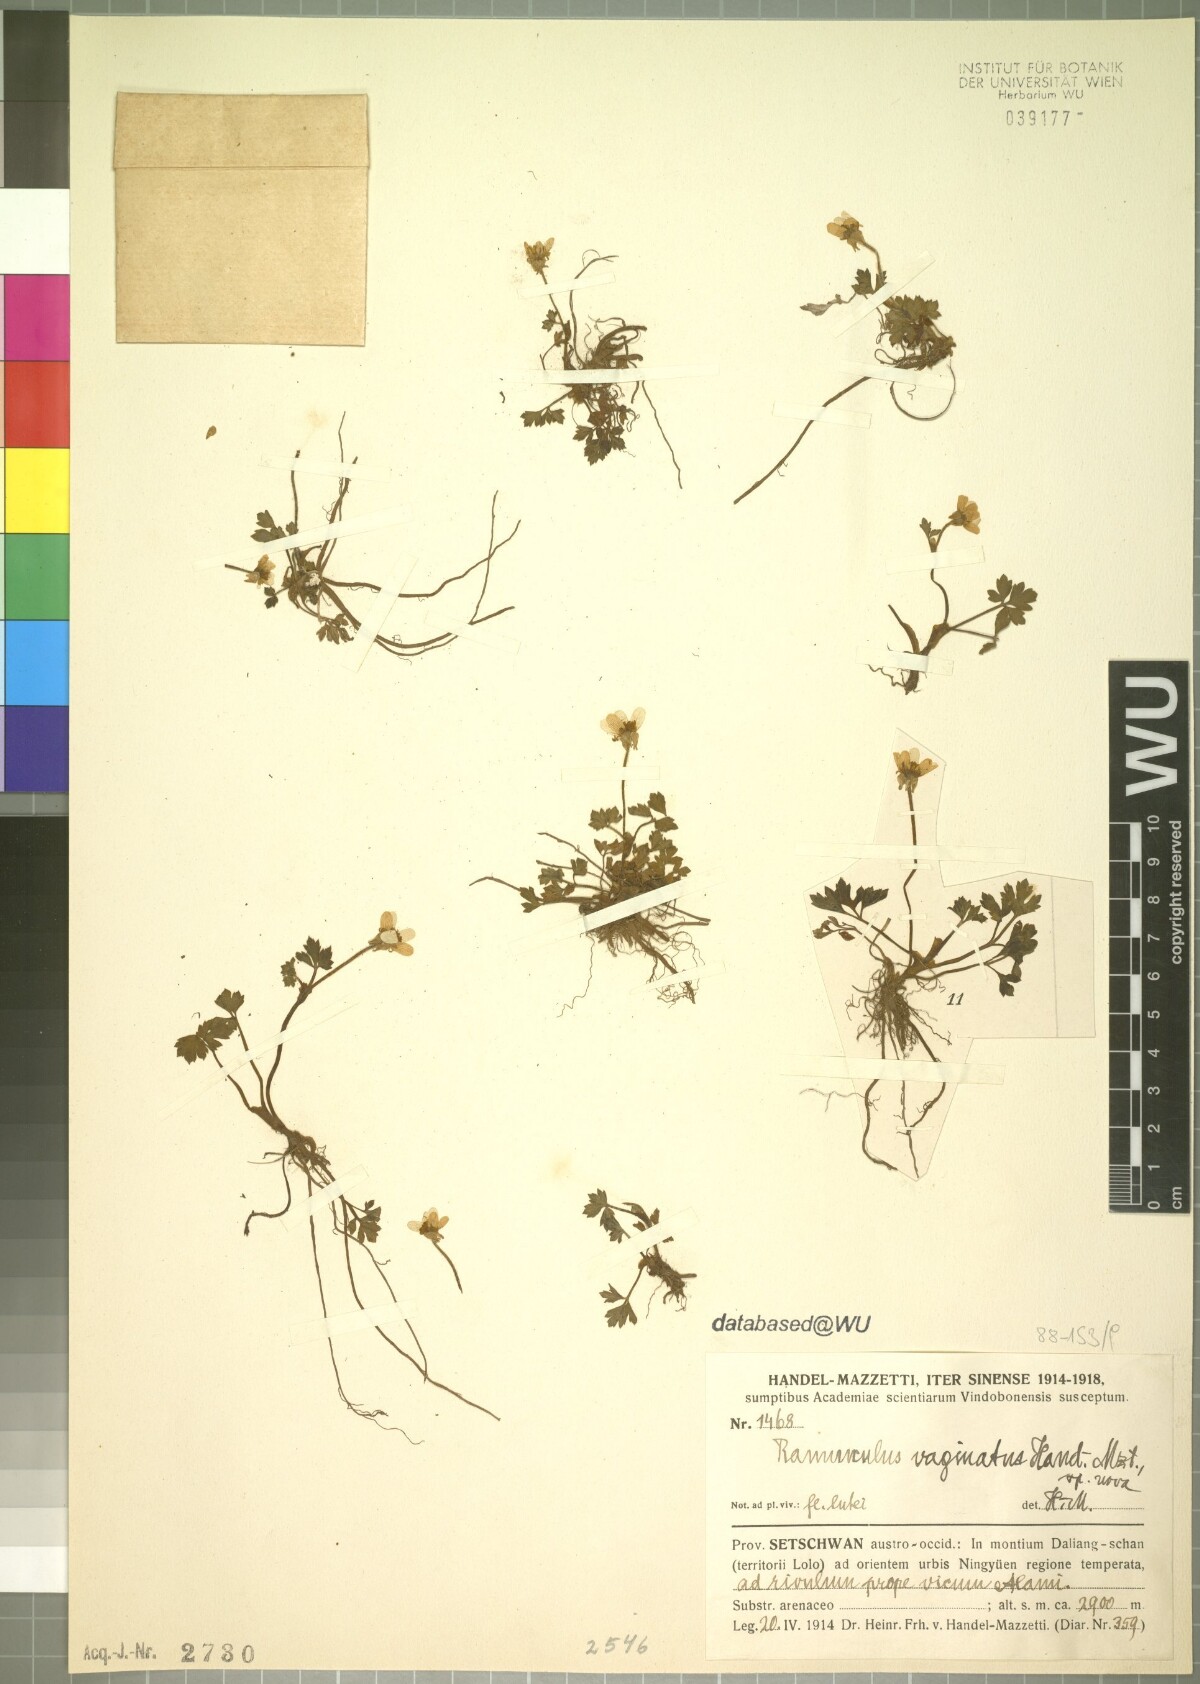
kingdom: Plantae
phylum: Tracheophyta
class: Magnoliopsida
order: Ranunculales
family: Ranunculaceae
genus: Ranunculus
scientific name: Ranunculus sinovaginatus
